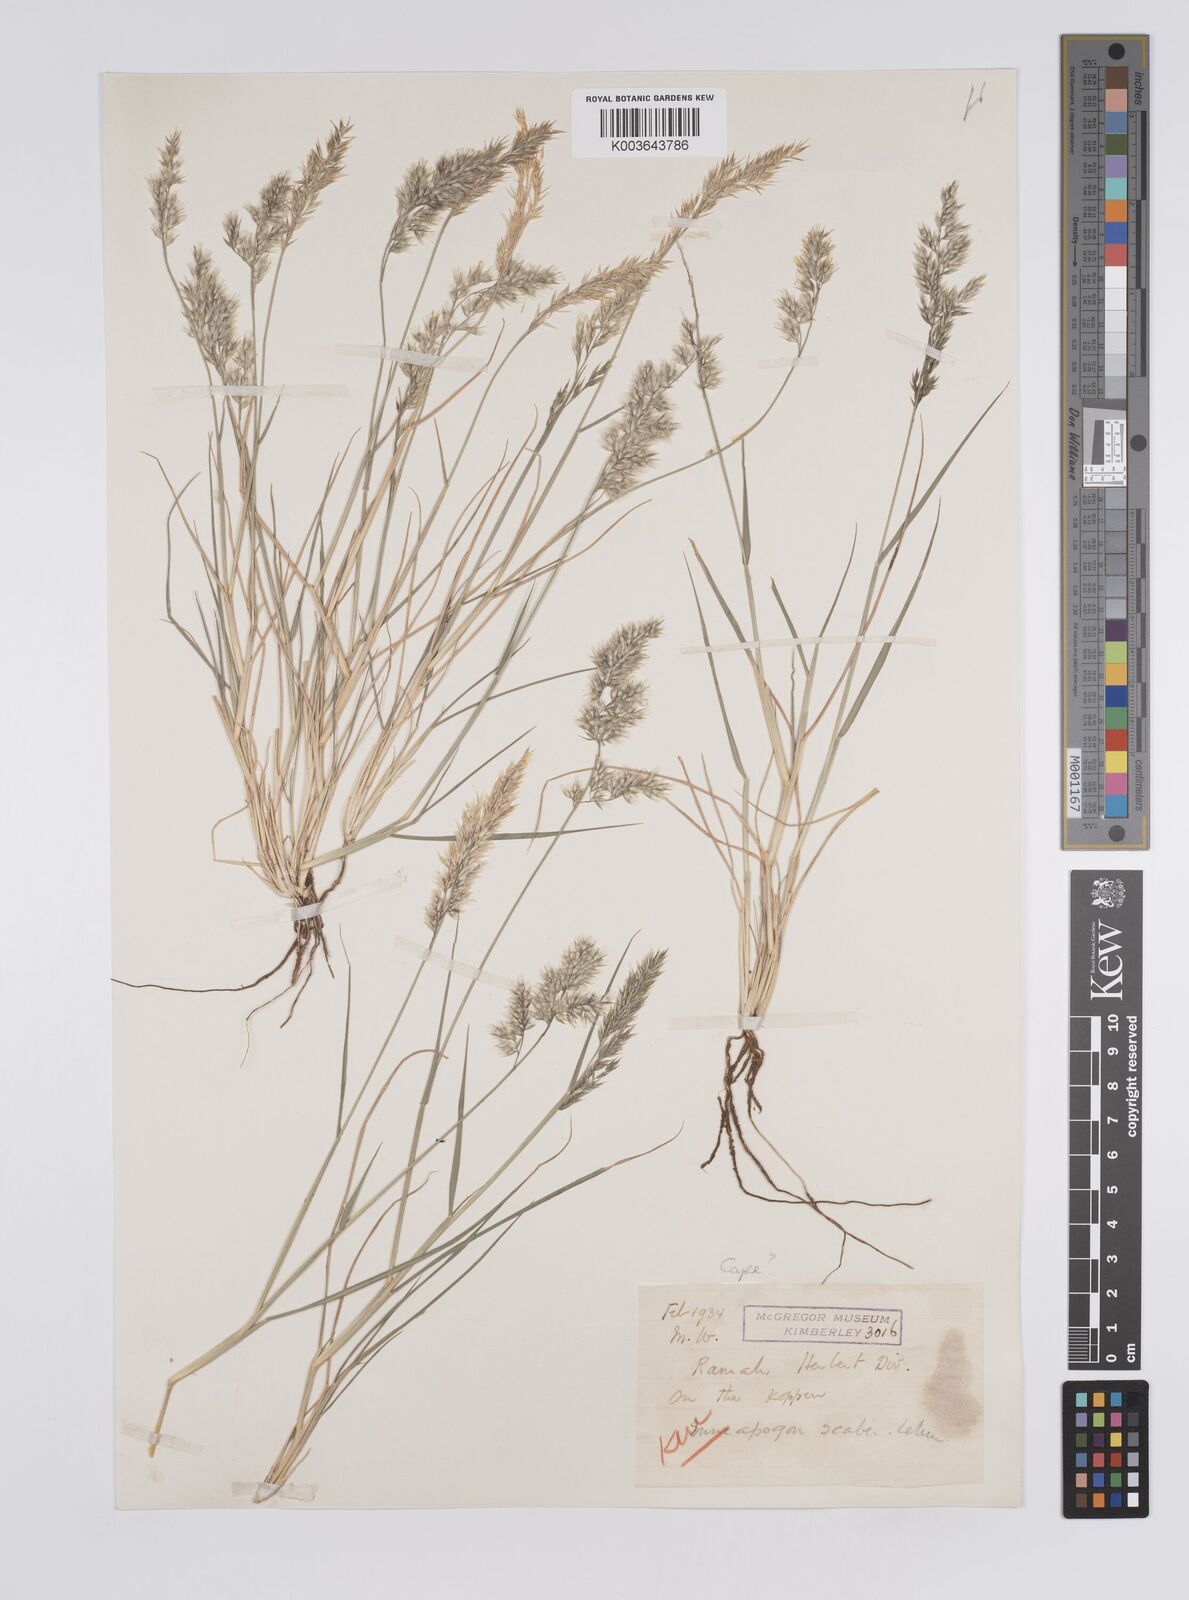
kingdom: Plantae
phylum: Tracheophyta
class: Liliopsida
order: Poales
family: Poaceae
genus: Enneapogon
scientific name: Enneapogon scaber
